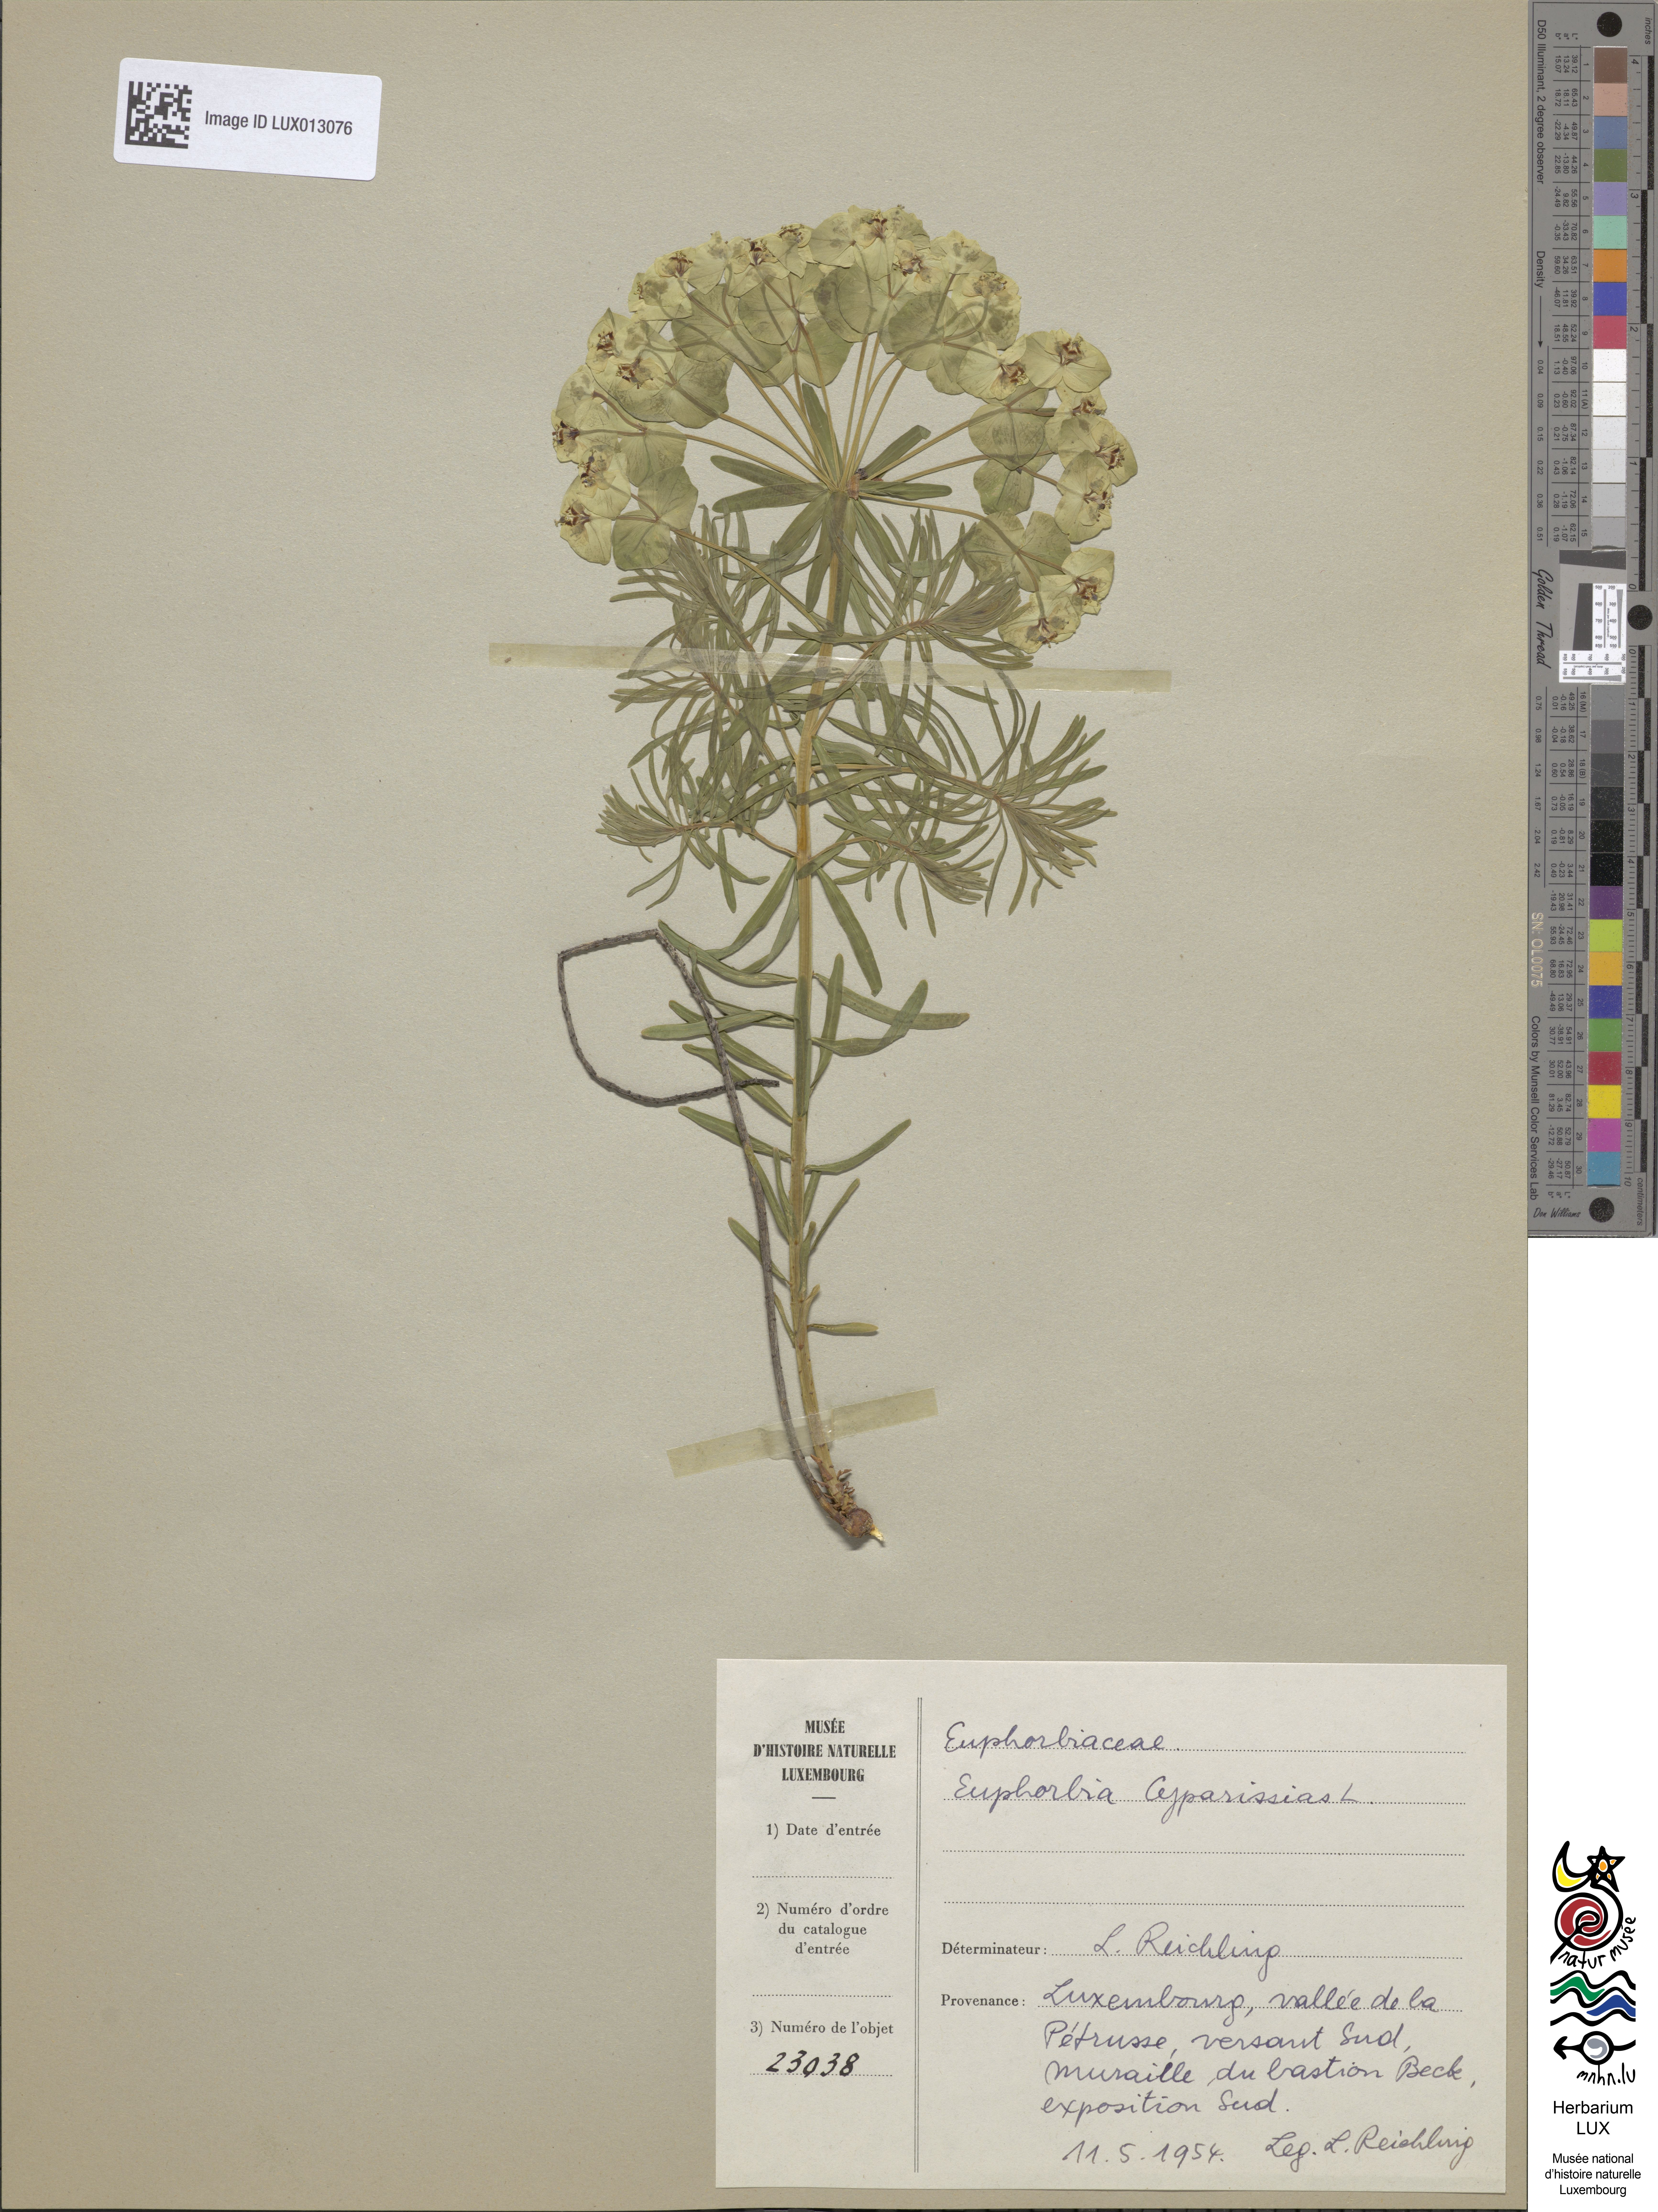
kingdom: Plantae
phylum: Tracheophyta
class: Magnoliopsida
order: Malpighiales
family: Euphorbiaceae
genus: Euphorbia
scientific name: Euphorbia cyparissias
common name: Cypress spurge
